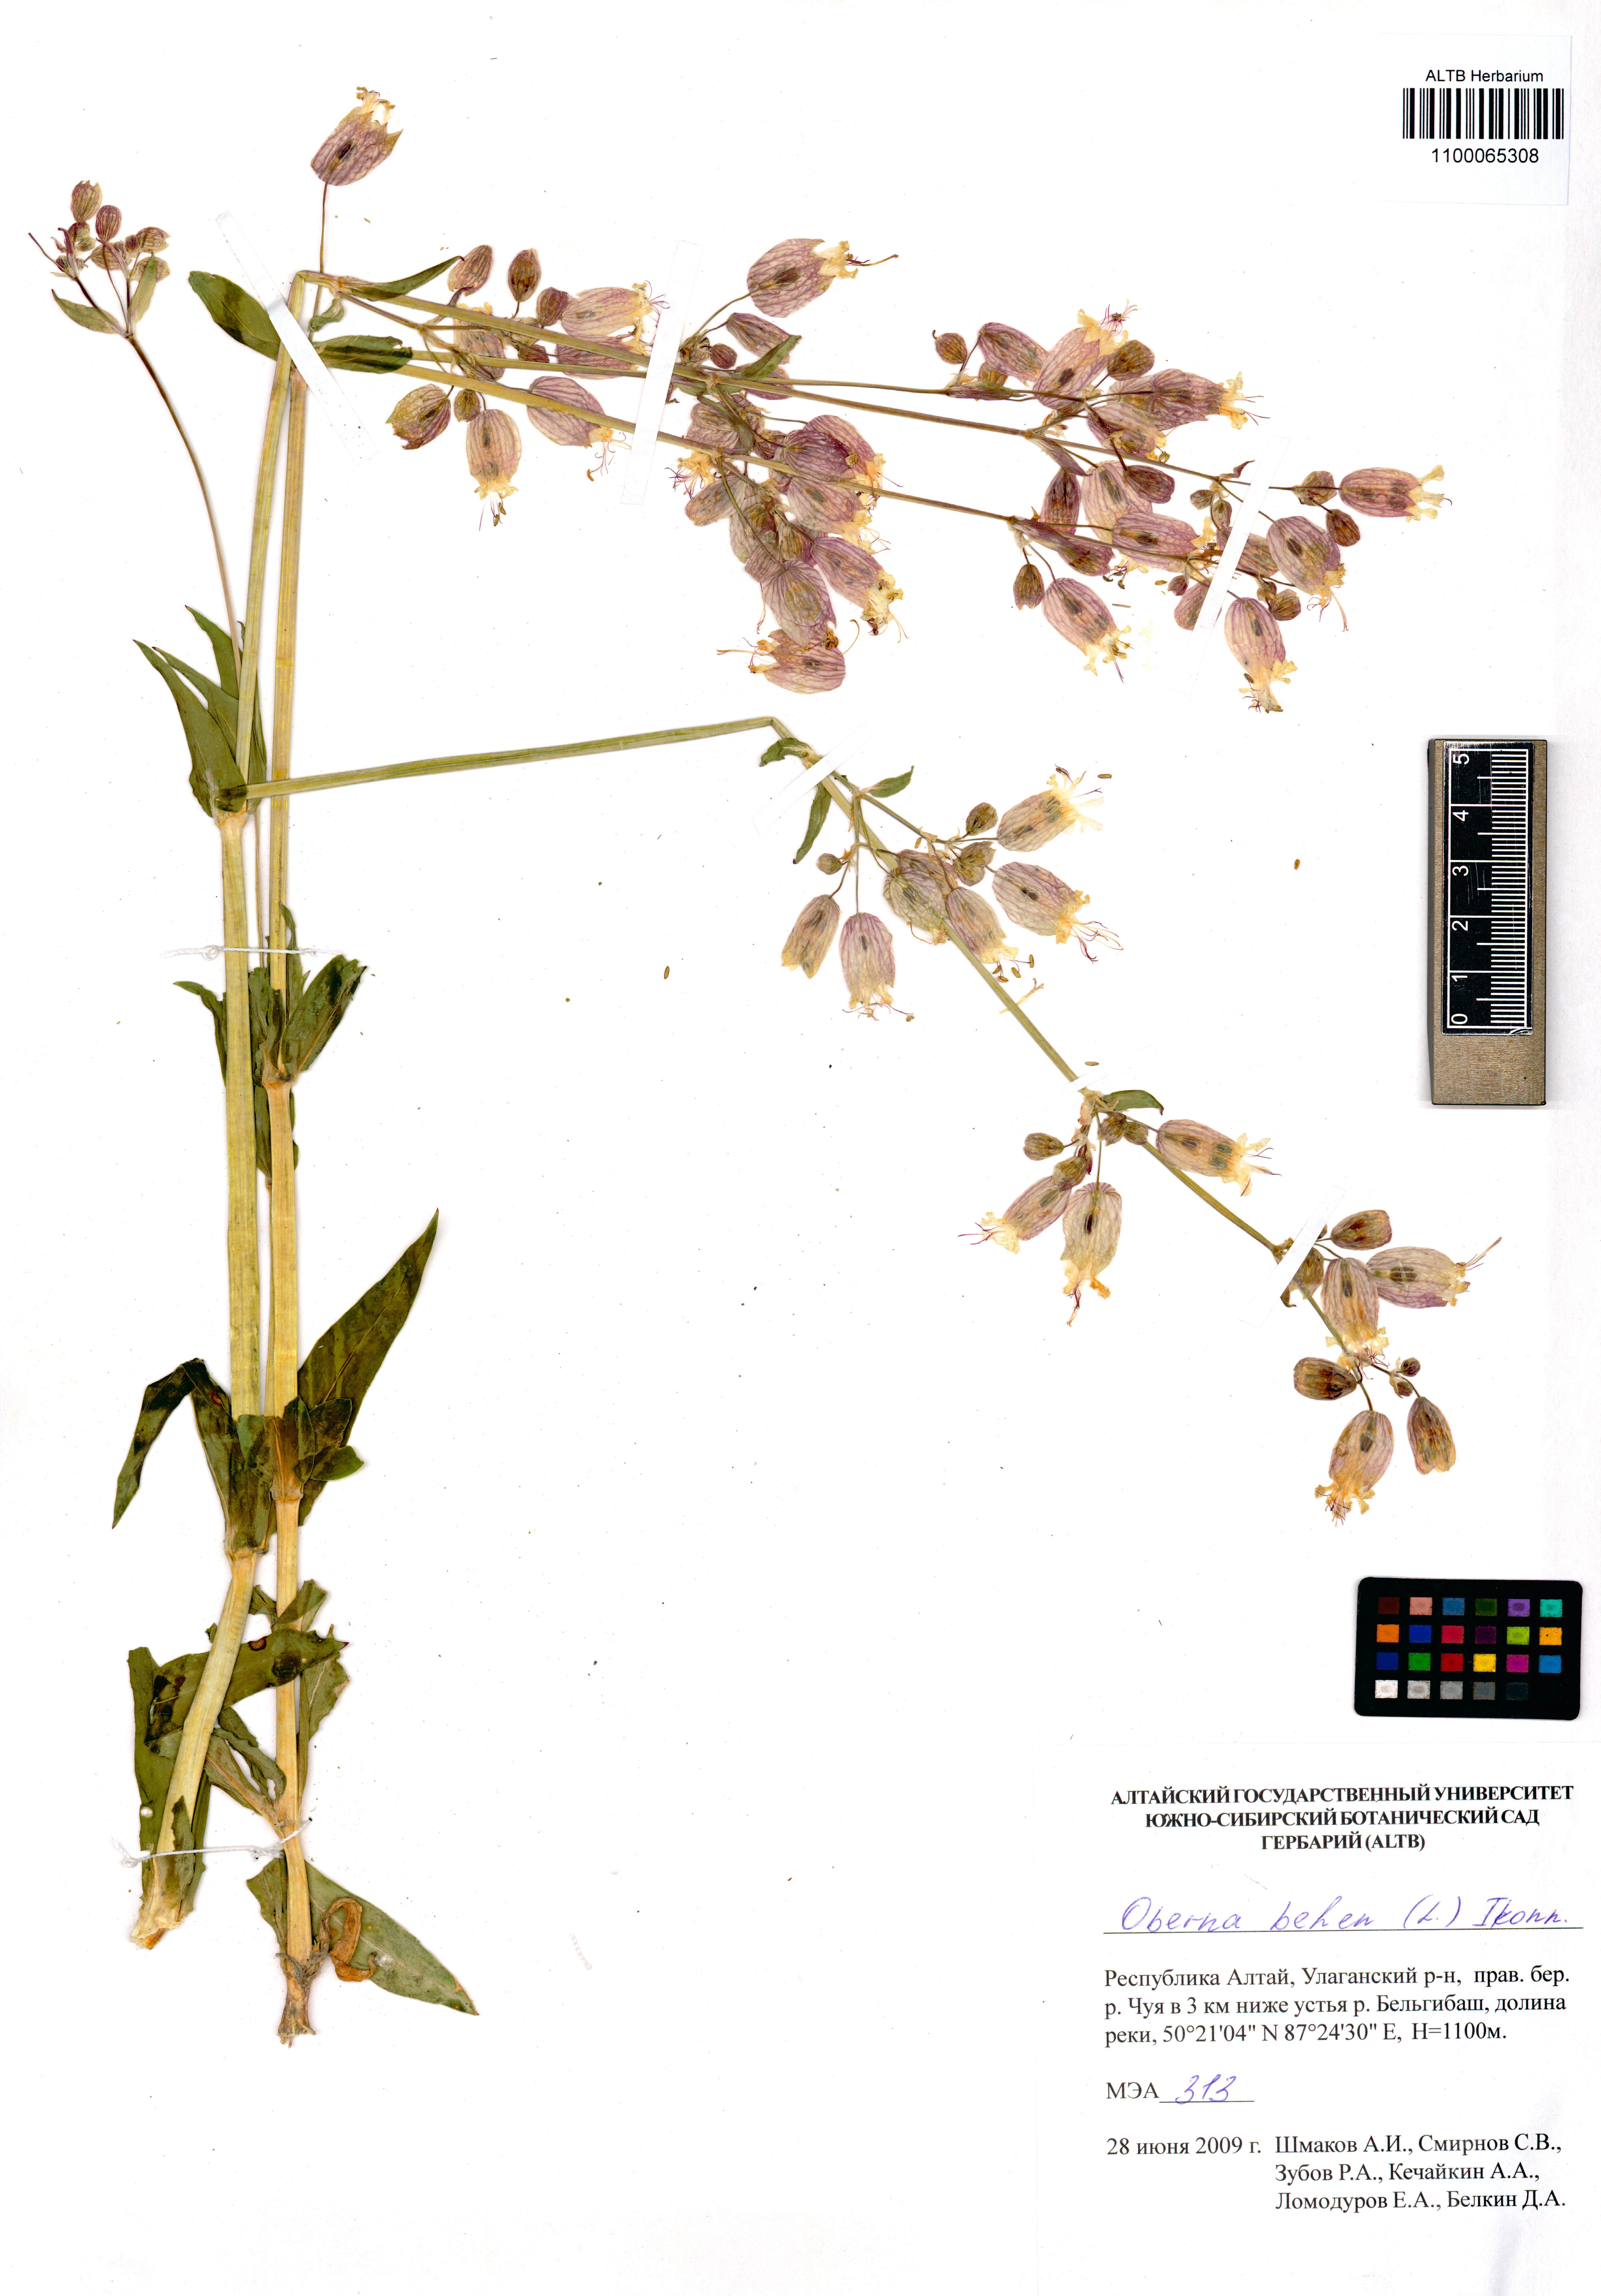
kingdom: Plantae
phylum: Tracheophyta
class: Magnoliopsida
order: Caryophyllales
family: Caryophyllaceae
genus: Silene
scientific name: Silene behen
